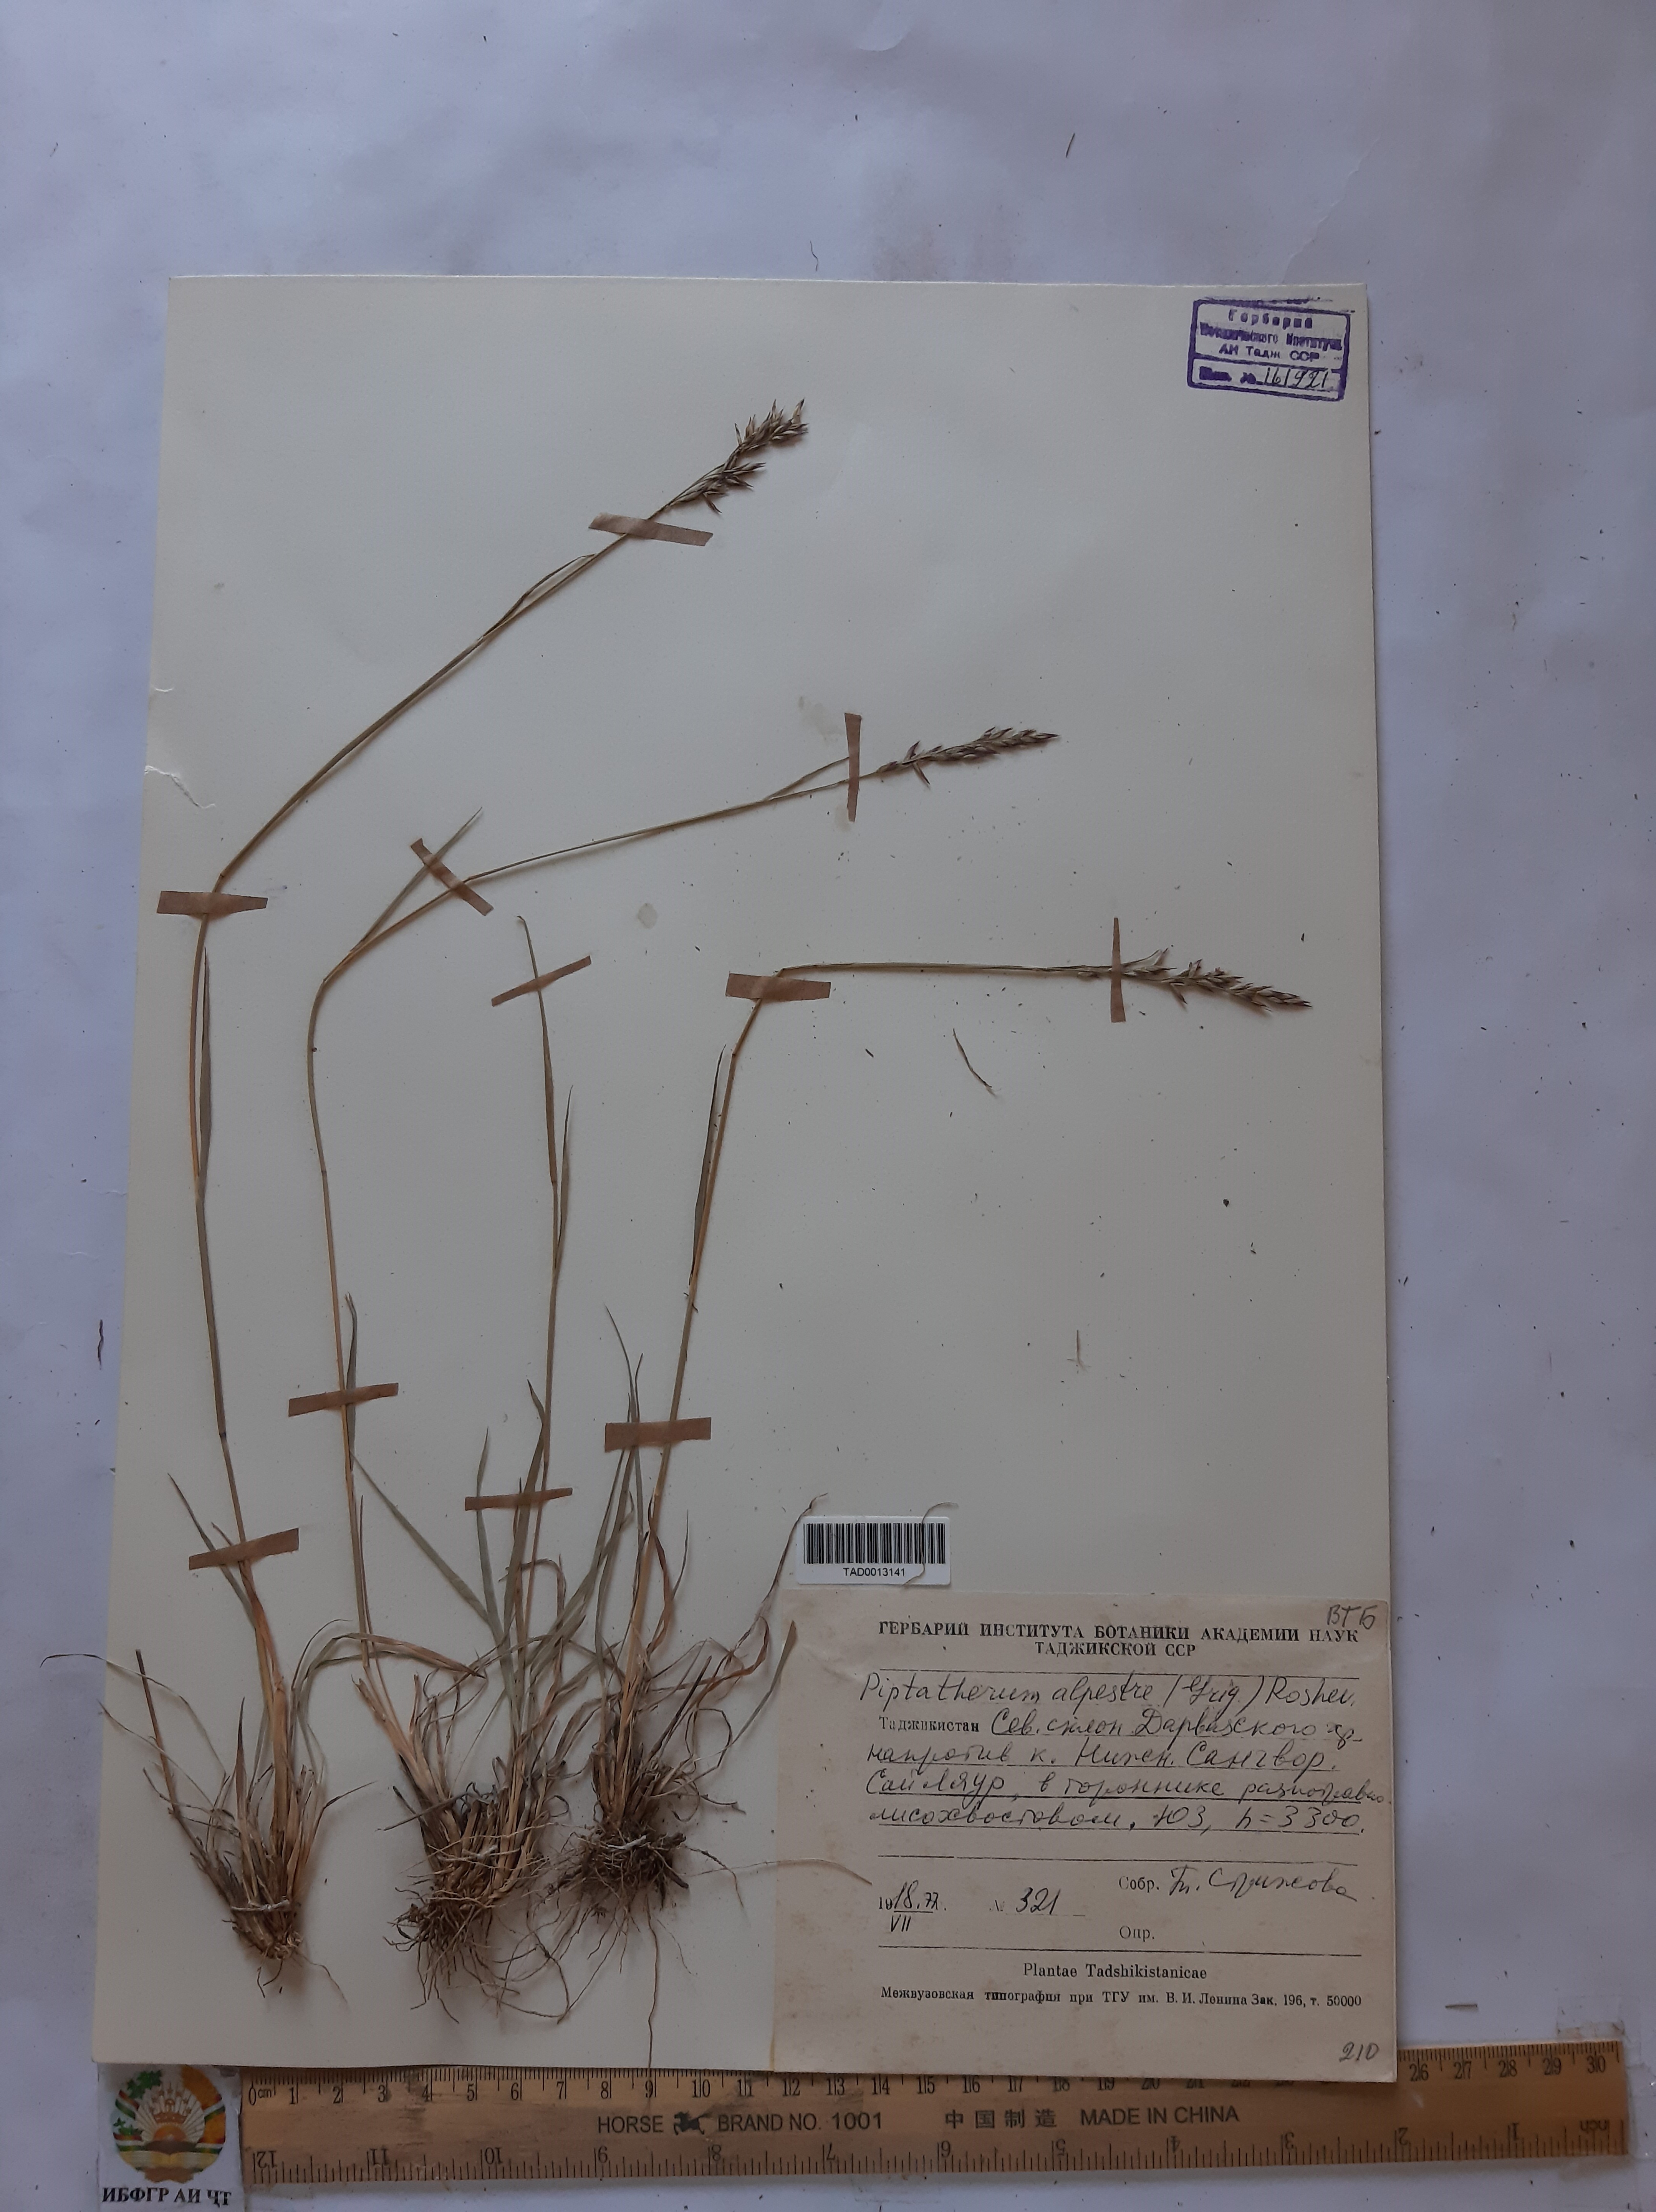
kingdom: Plantae
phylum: Tracheophyta
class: Liliopsida
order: Poales
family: Poaceae
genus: Piptatherum
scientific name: Piptatherum alpestre
